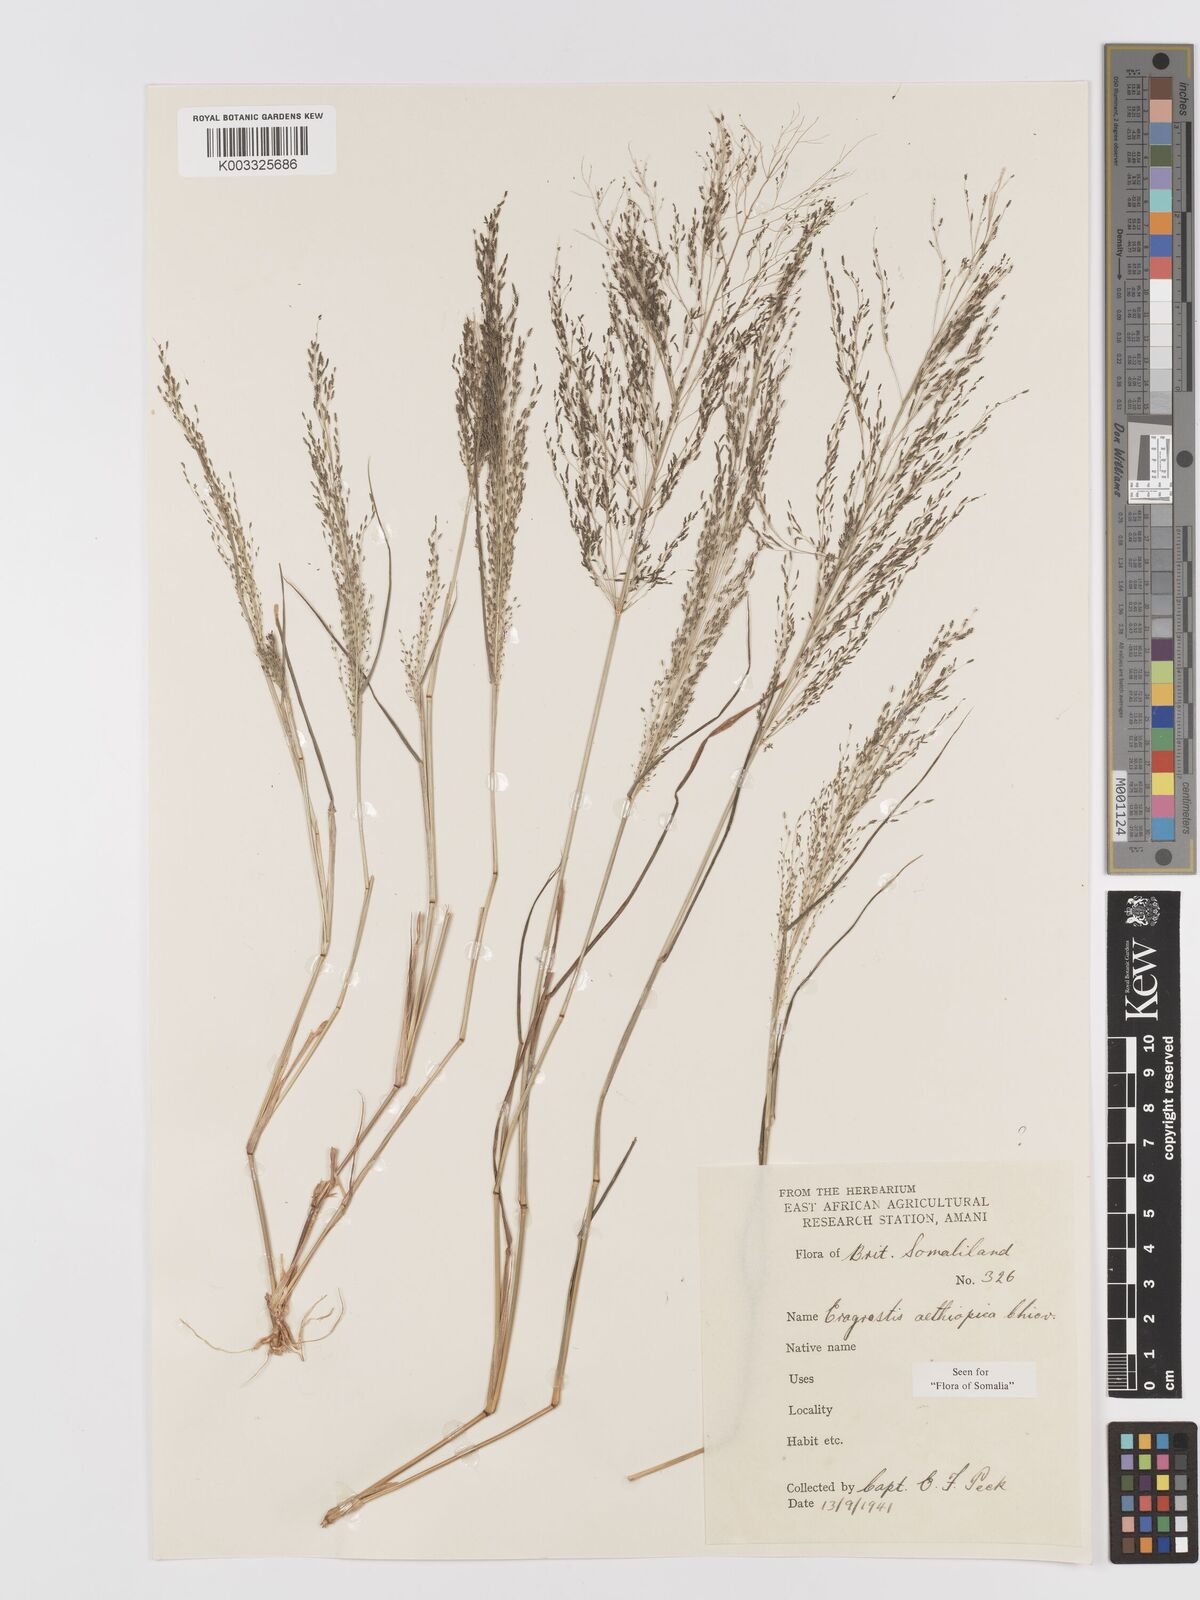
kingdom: Plantae
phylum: Tracheophyta
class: Liliopsida
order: Poales
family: Poaceae
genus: Eragrostis
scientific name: Eragrostis aethiopica
